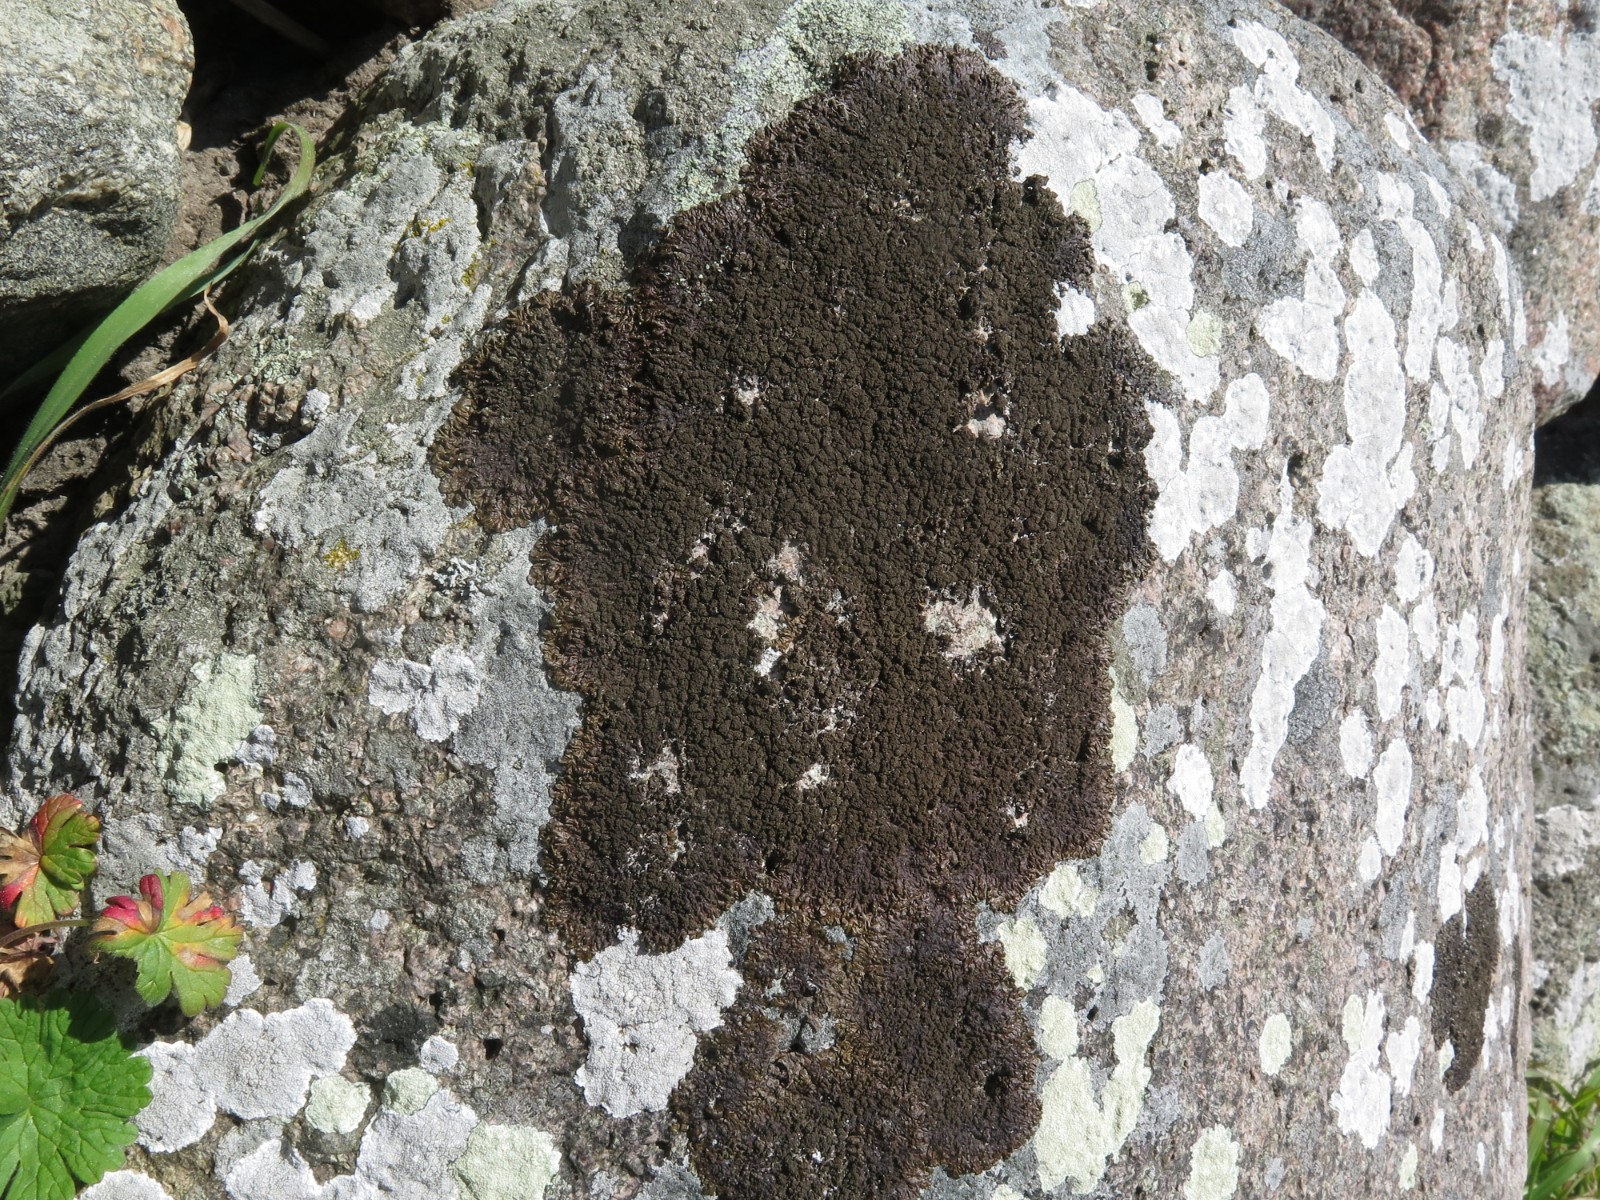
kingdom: Fungi
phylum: Ascomycota
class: Lecanoromycetes
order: Lecanorales
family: Parmeliaceae
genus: Melanelixia
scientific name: Melanelixia fuliginosa
